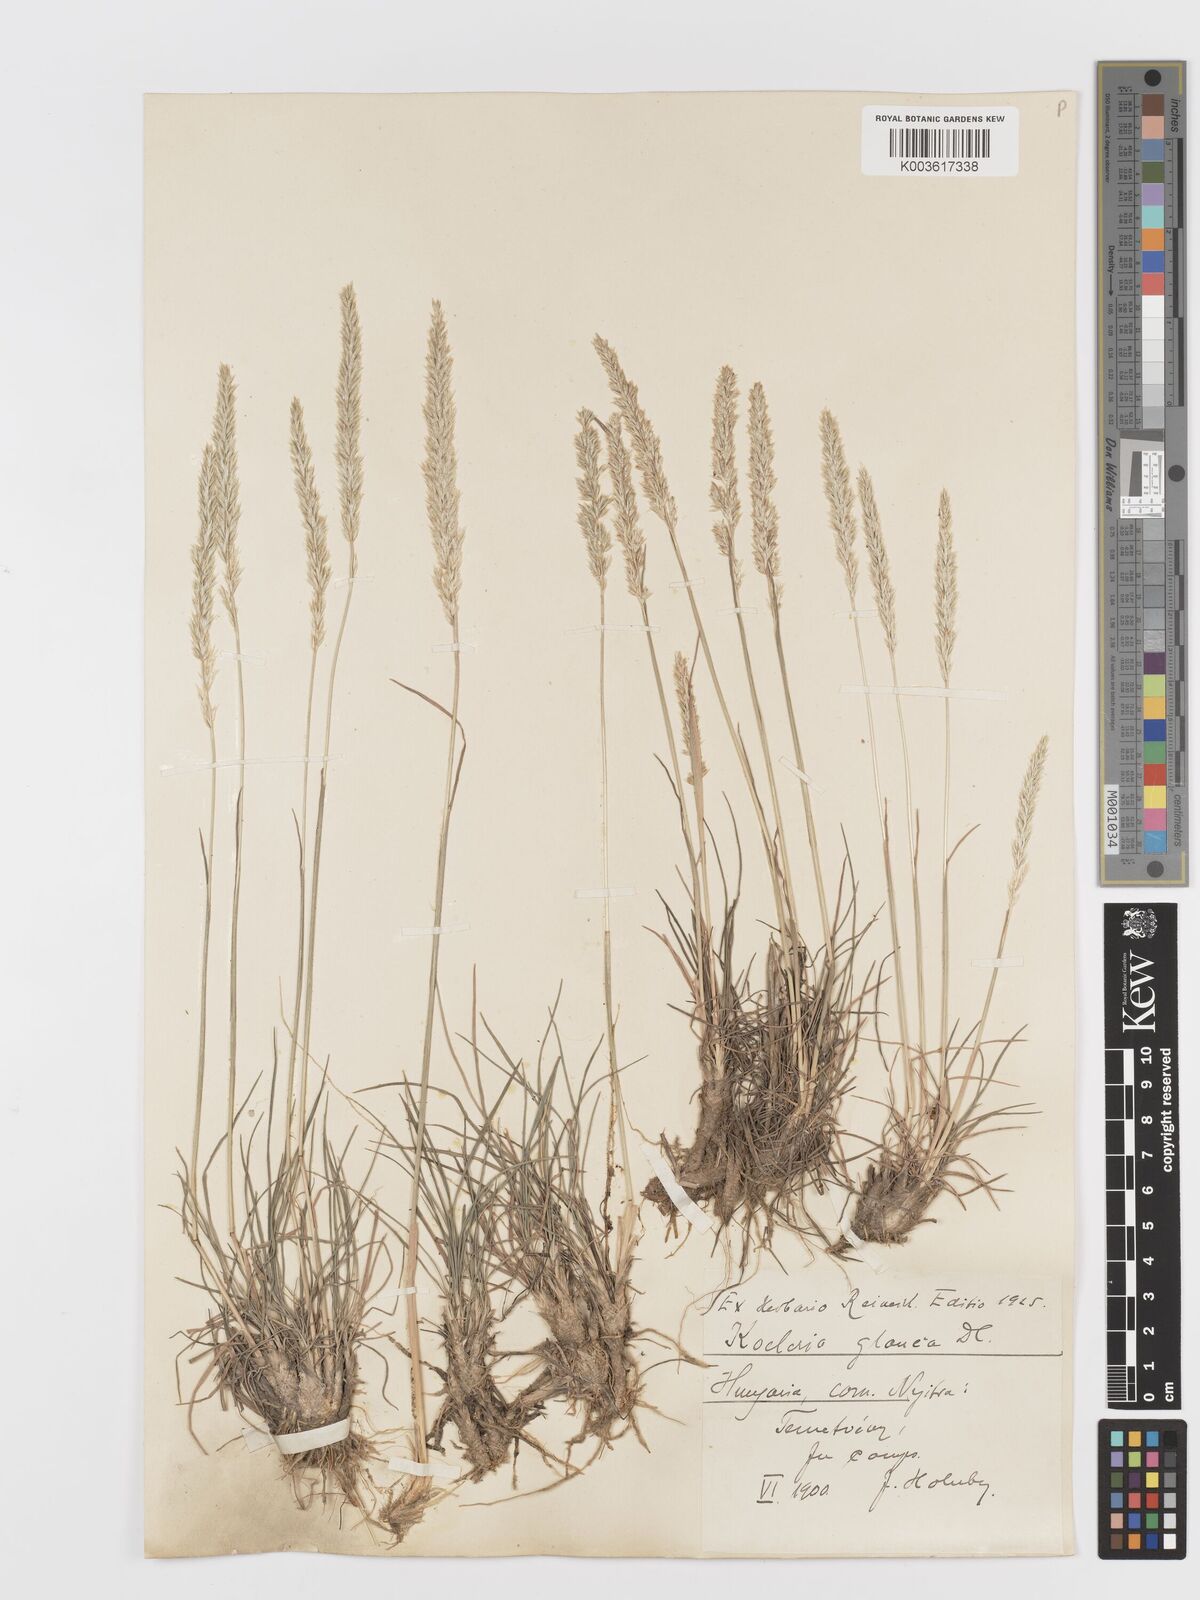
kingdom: Plantae
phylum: Tracheophyta
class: Liliopsida
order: Poales
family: Poaceae
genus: Koeleria
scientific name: Koeleria glauca
